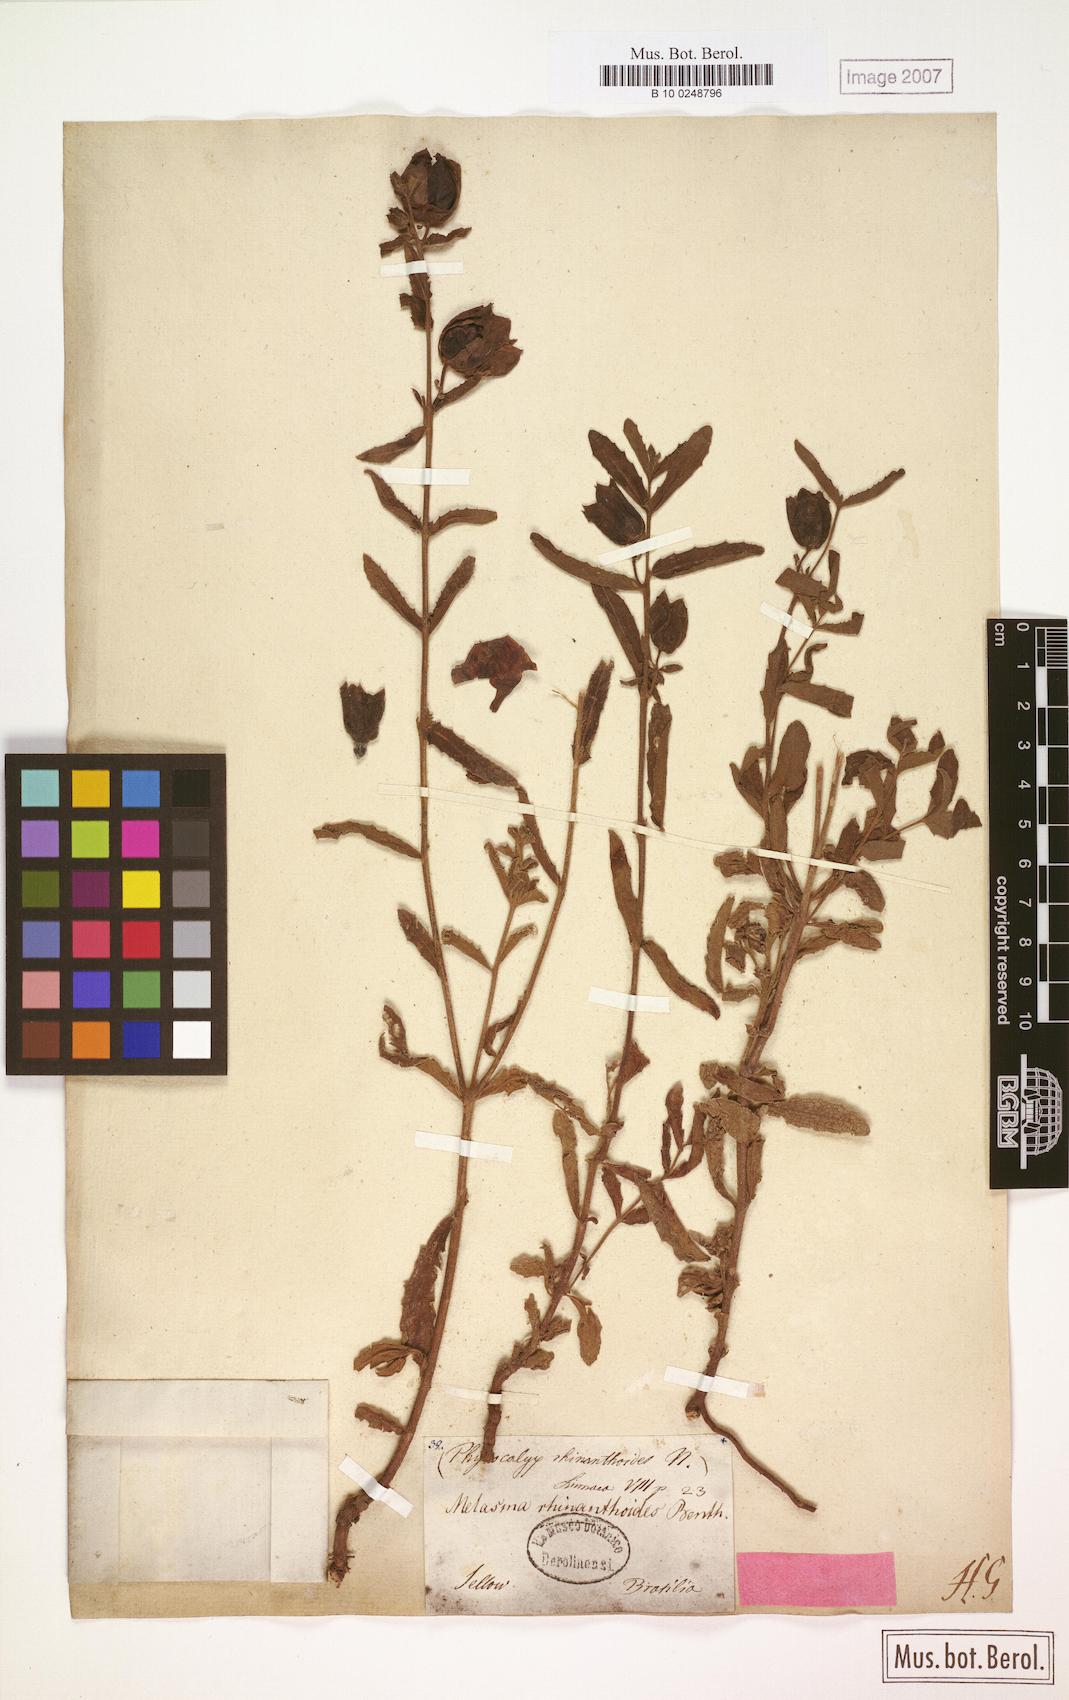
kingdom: Plantae
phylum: Tracheophyta
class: Magnoliopsida
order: Lamiales
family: Orobanchaceae
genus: Melasma
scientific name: Melasma rhinanthoides
